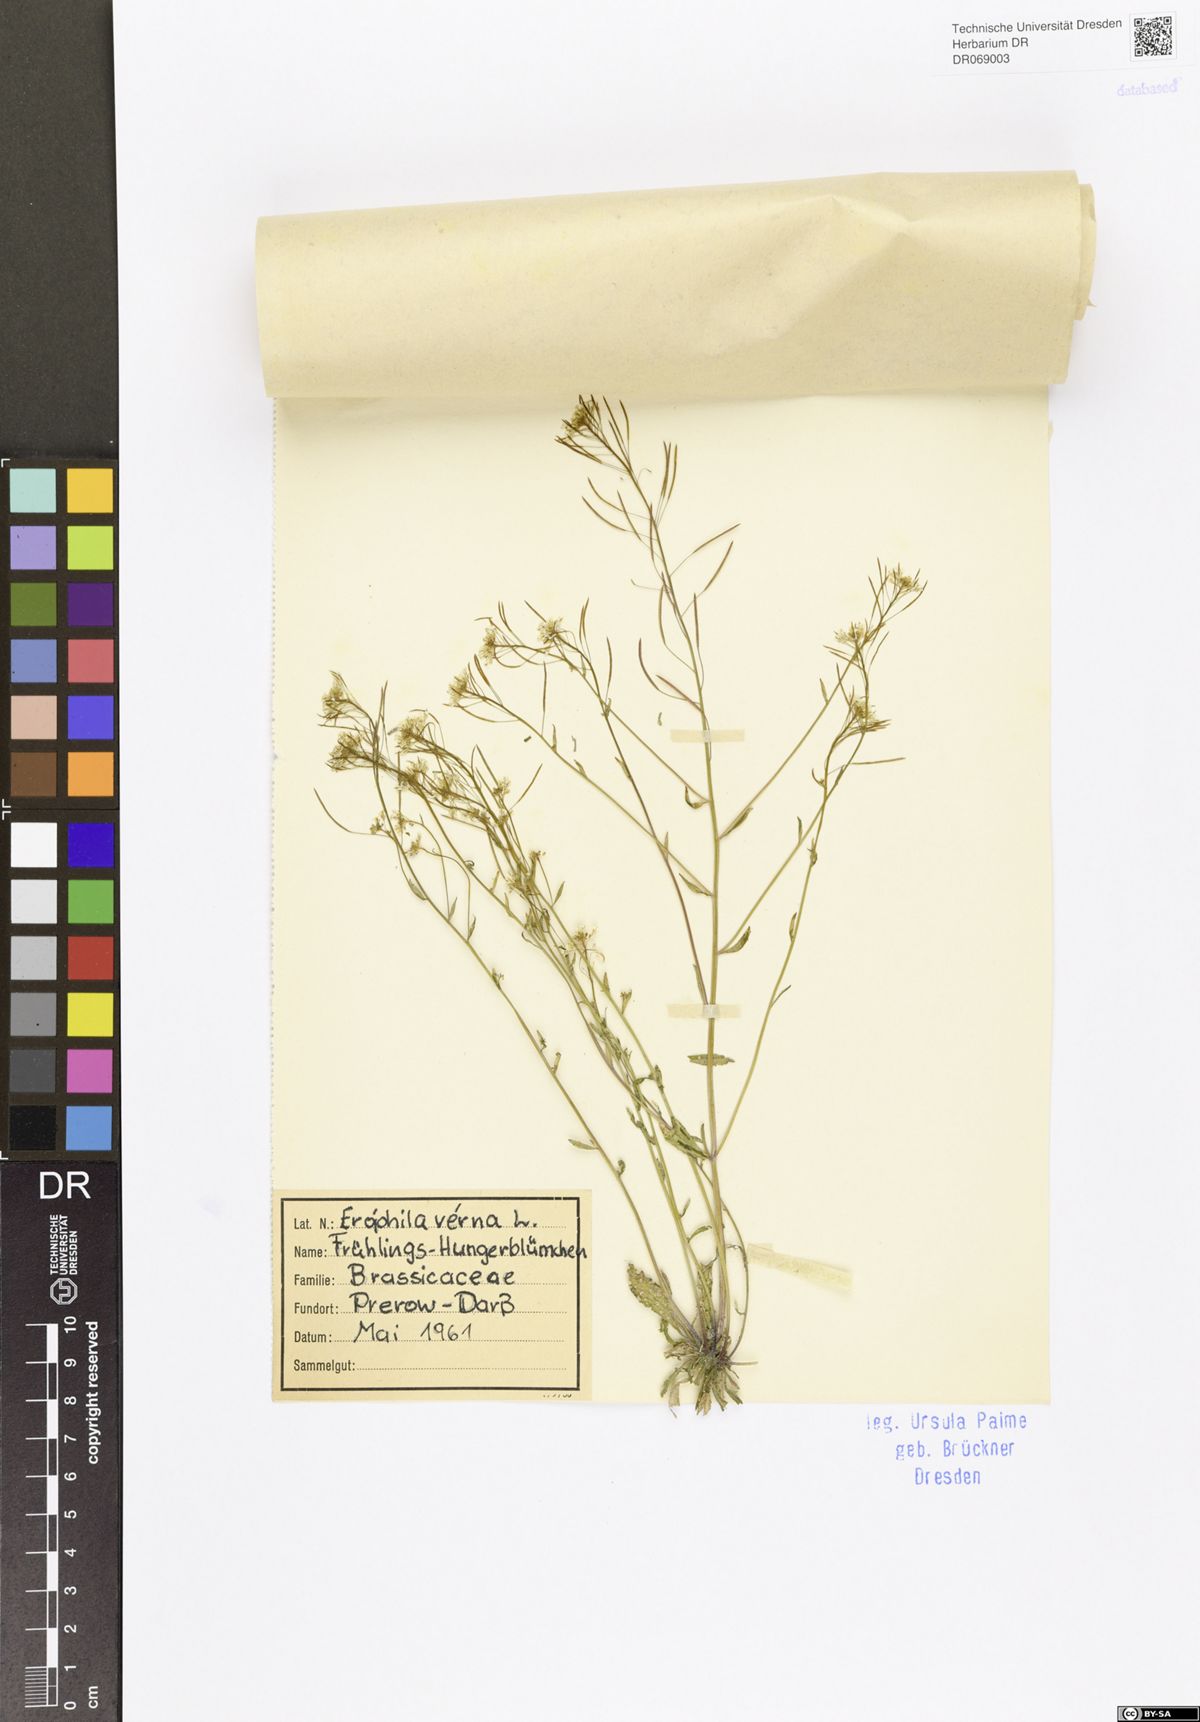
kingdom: Plantae
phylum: Tracheophyta
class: Magnoliopsida
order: Brassicales
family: Brassicaceae
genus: Draba
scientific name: Draba verna
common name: Spring draba
